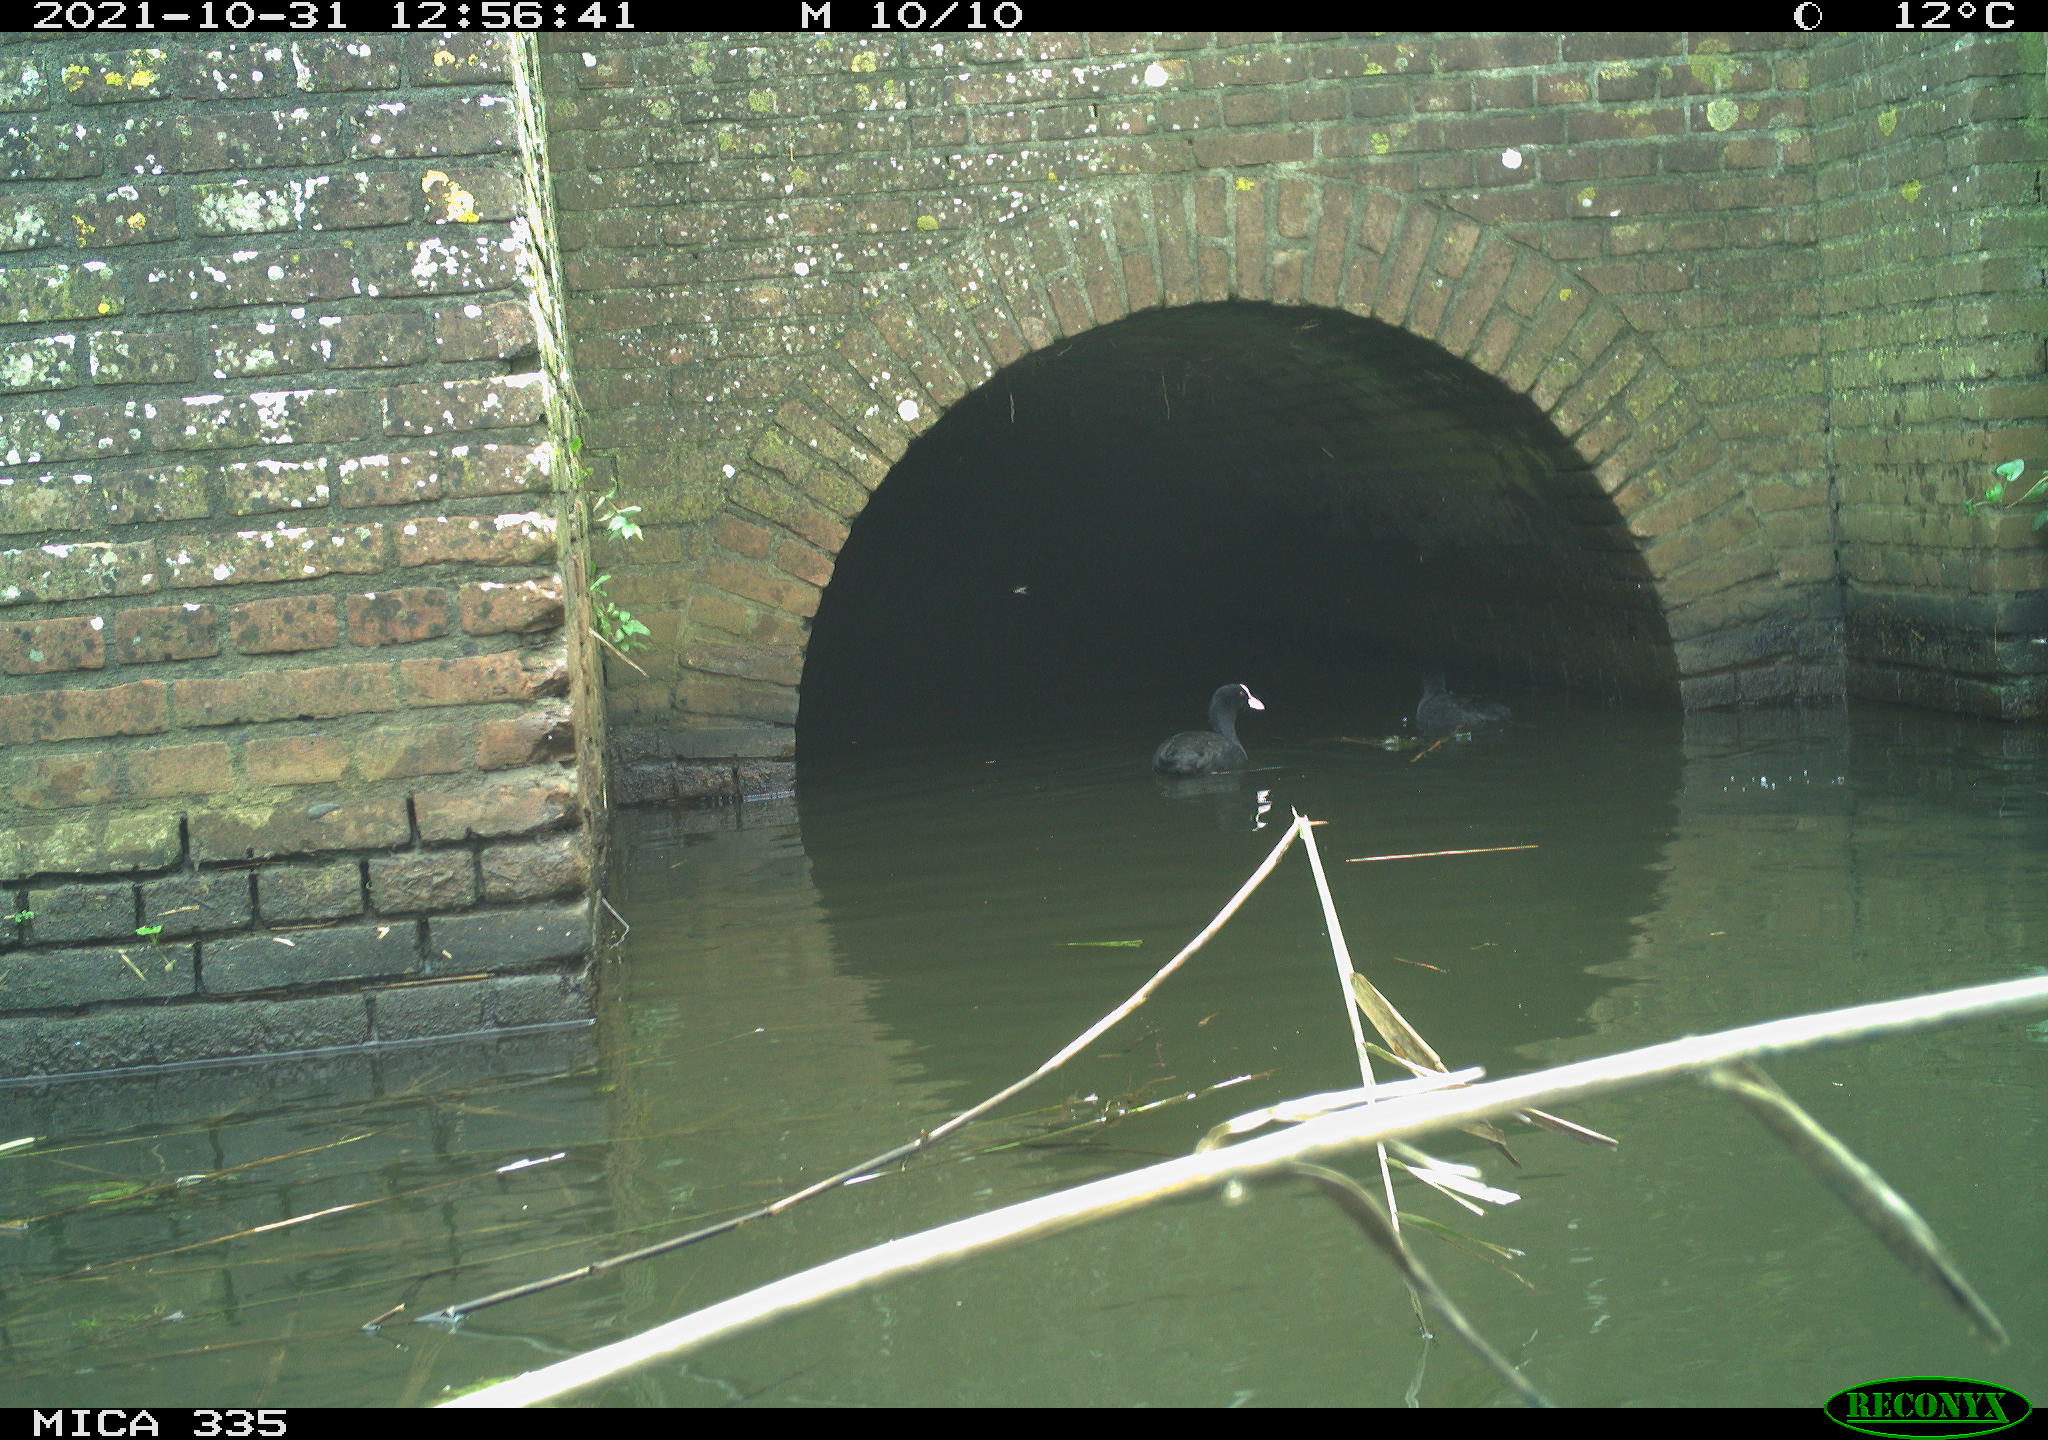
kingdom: Animalia
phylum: Chordata
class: Aves
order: Gruiformes
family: Rallidae
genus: Fulica
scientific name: Fulica atra
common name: Eurasian coot
